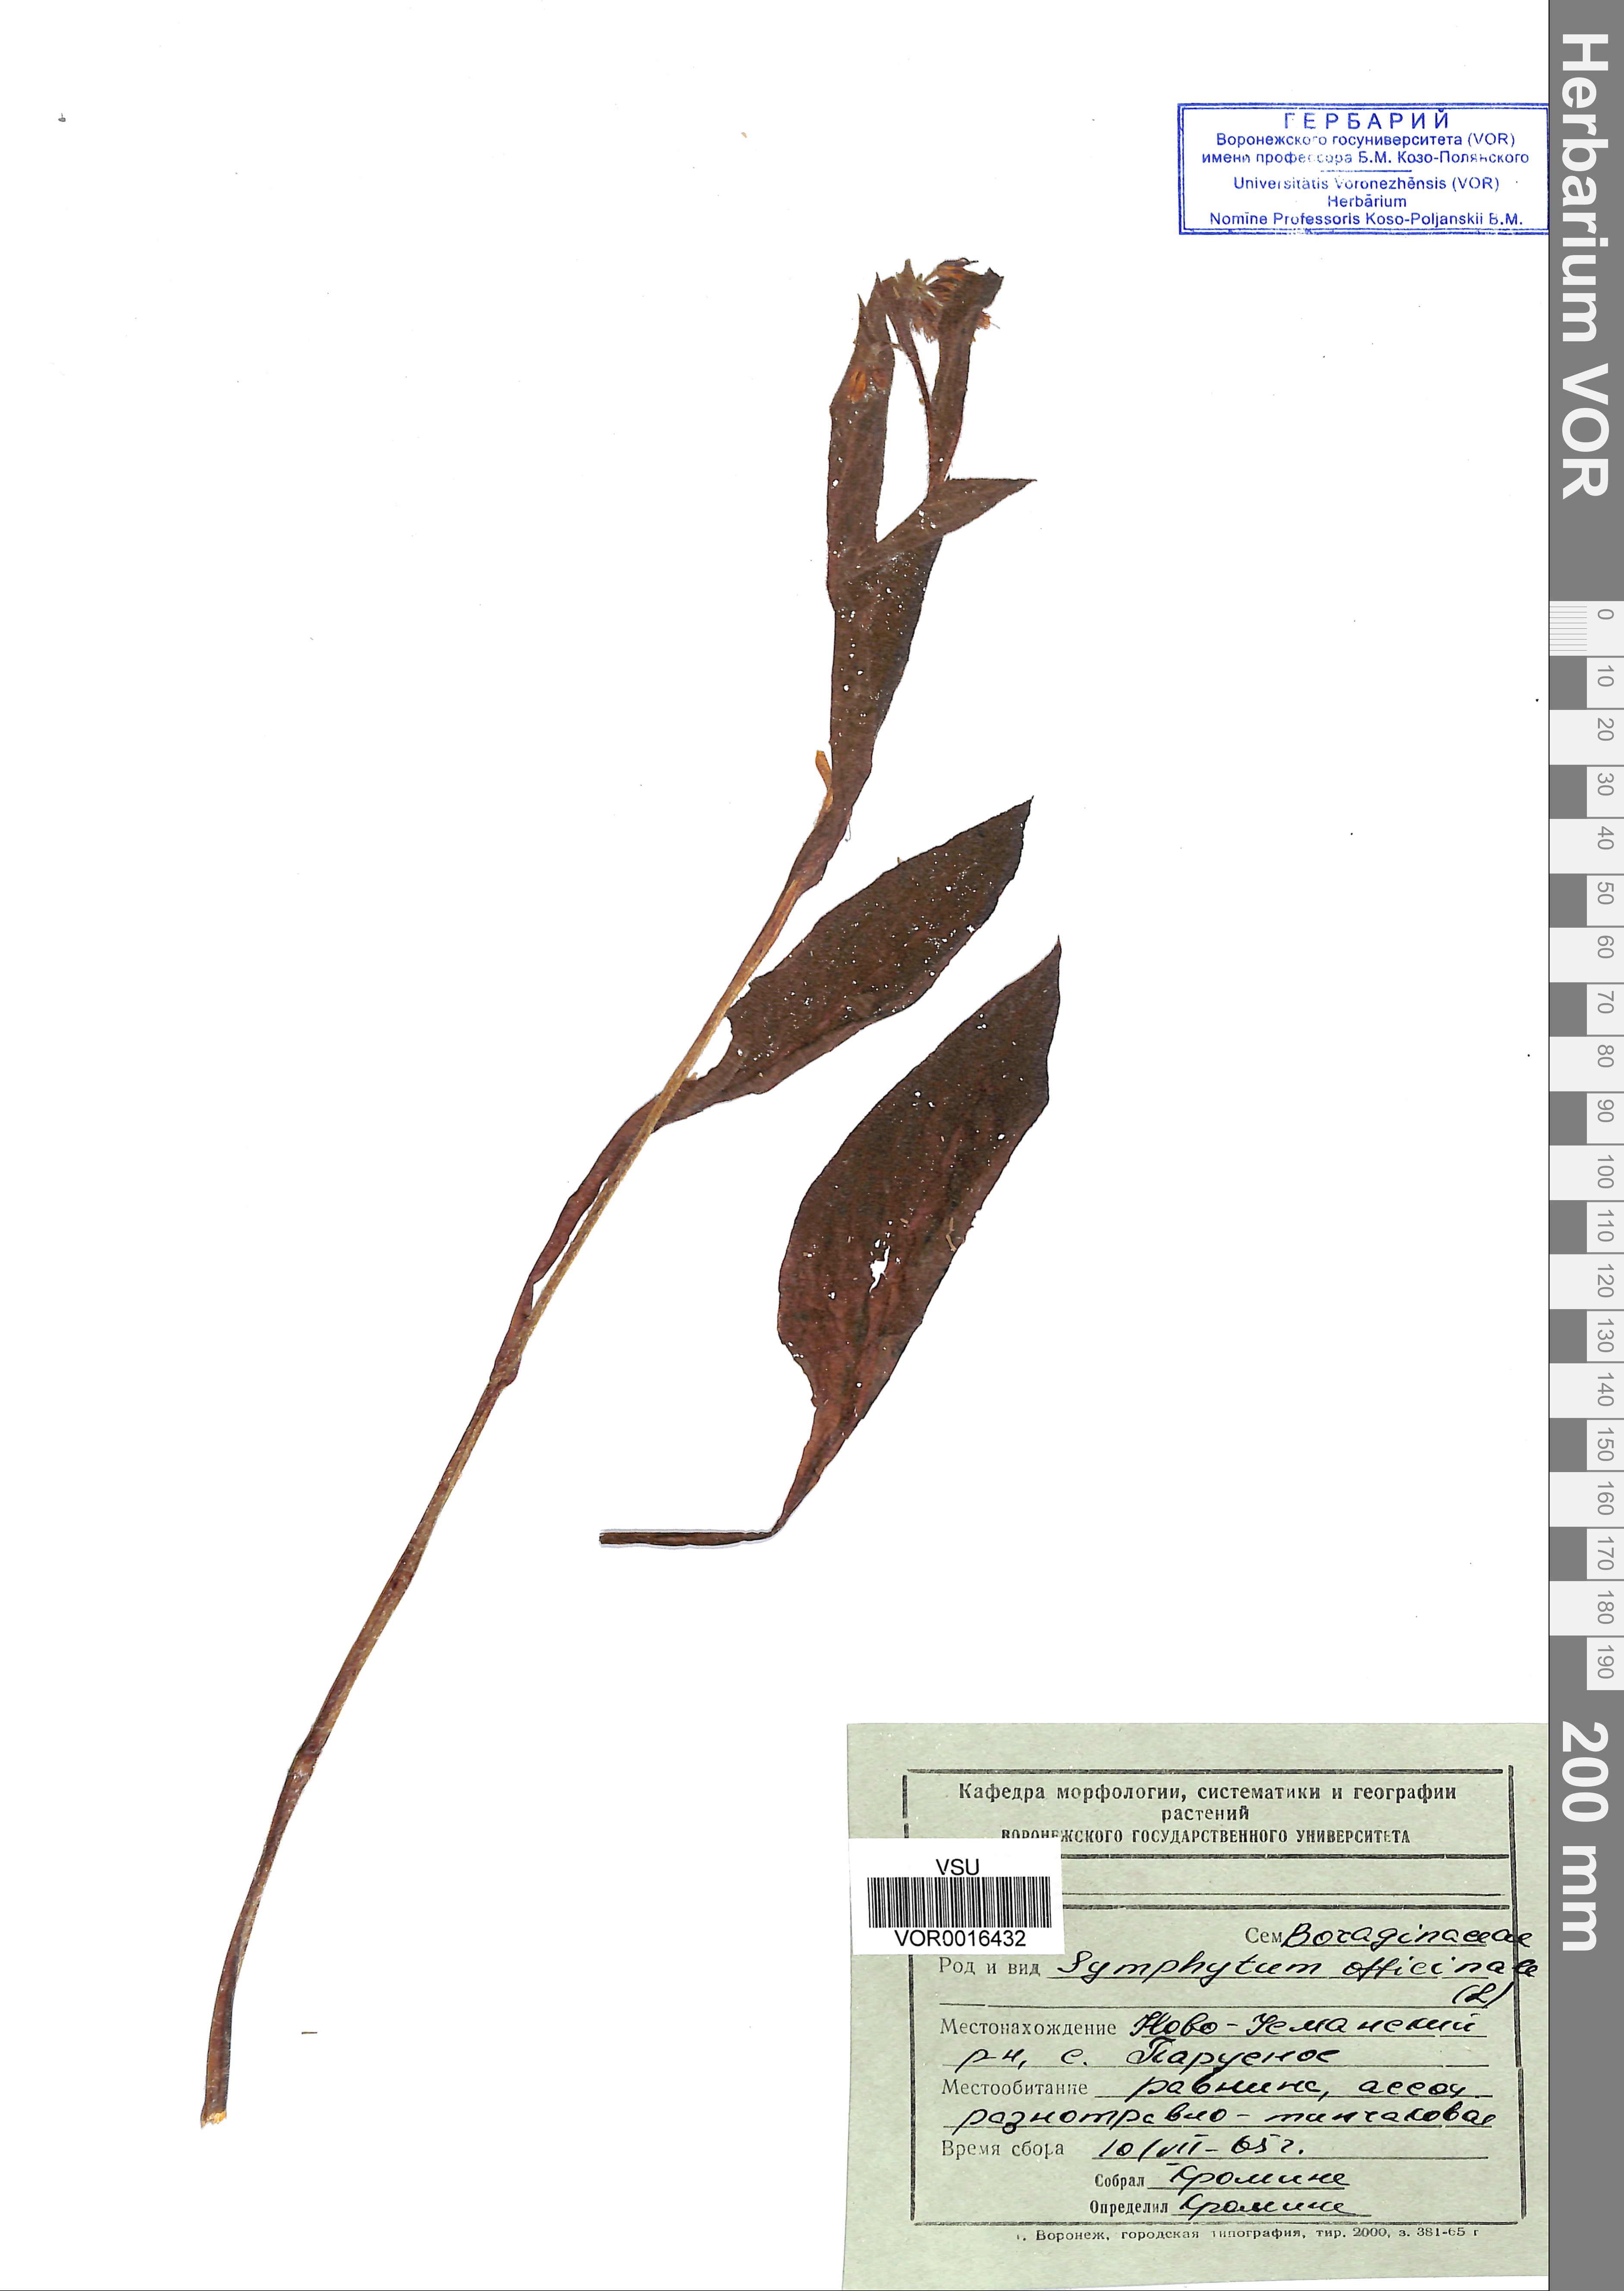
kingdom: Plantae
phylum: Tracheophyta
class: Magnoliopsida
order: Boraginales
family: Boraginaceae
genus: Symphytum
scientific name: Symphytum officinale
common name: Common comfrey
